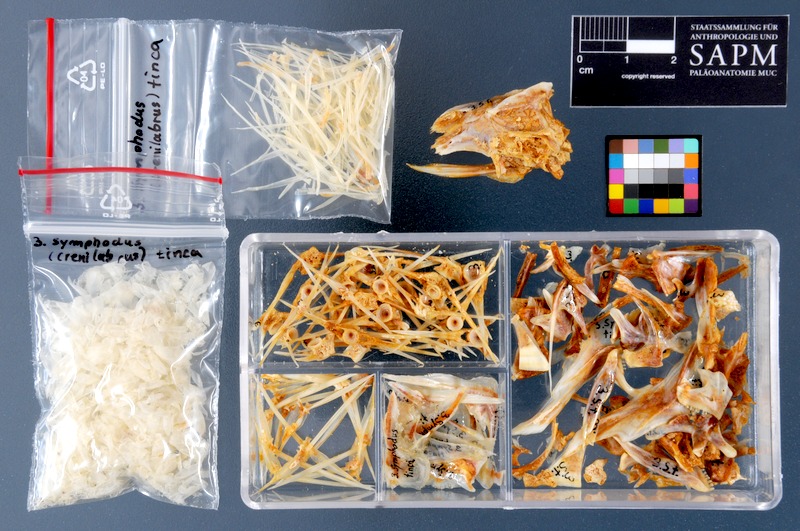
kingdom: Animalia
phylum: Chordata
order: Perciformes
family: Labridae
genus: Symphodus
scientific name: Symphodus tinca
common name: Peacock wrasse
